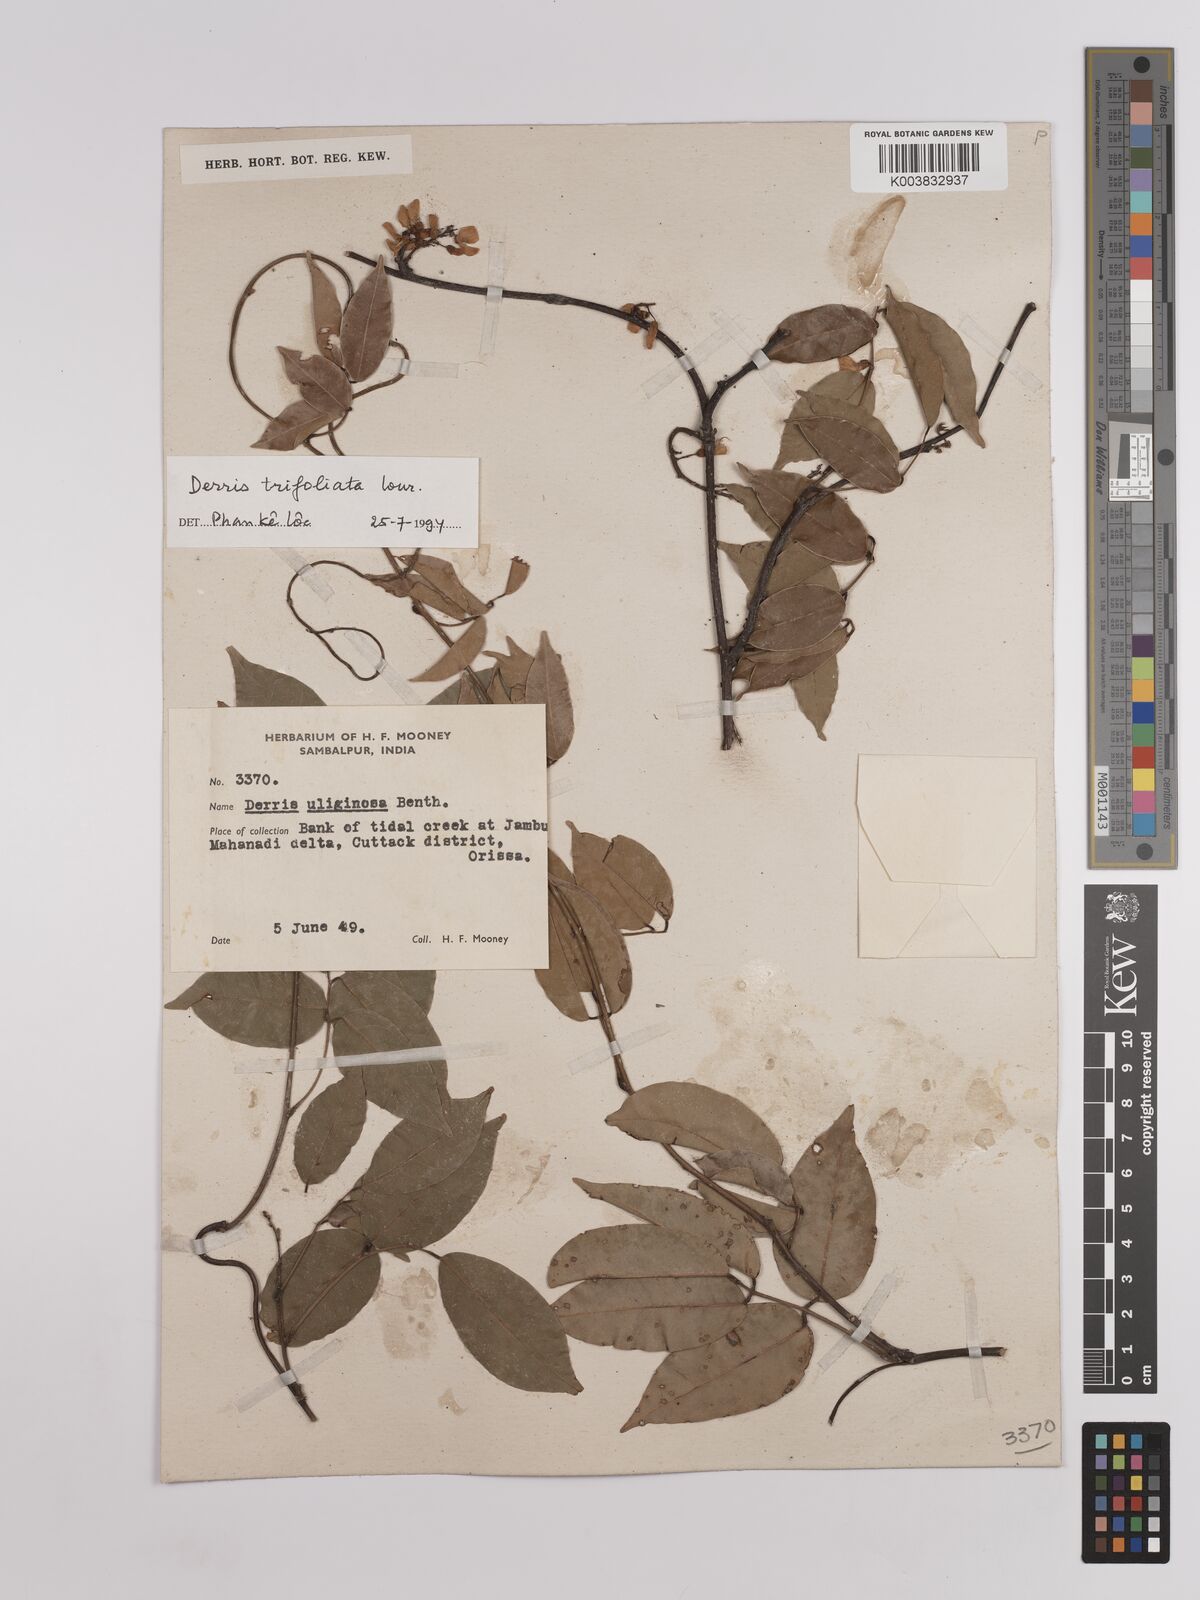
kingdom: Plantae
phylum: Tracheophyta
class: Magnoliopsida
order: Fabales
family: Fabaceae
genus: Derris
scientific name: Derris trifoliata
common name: Three-leaf derris
